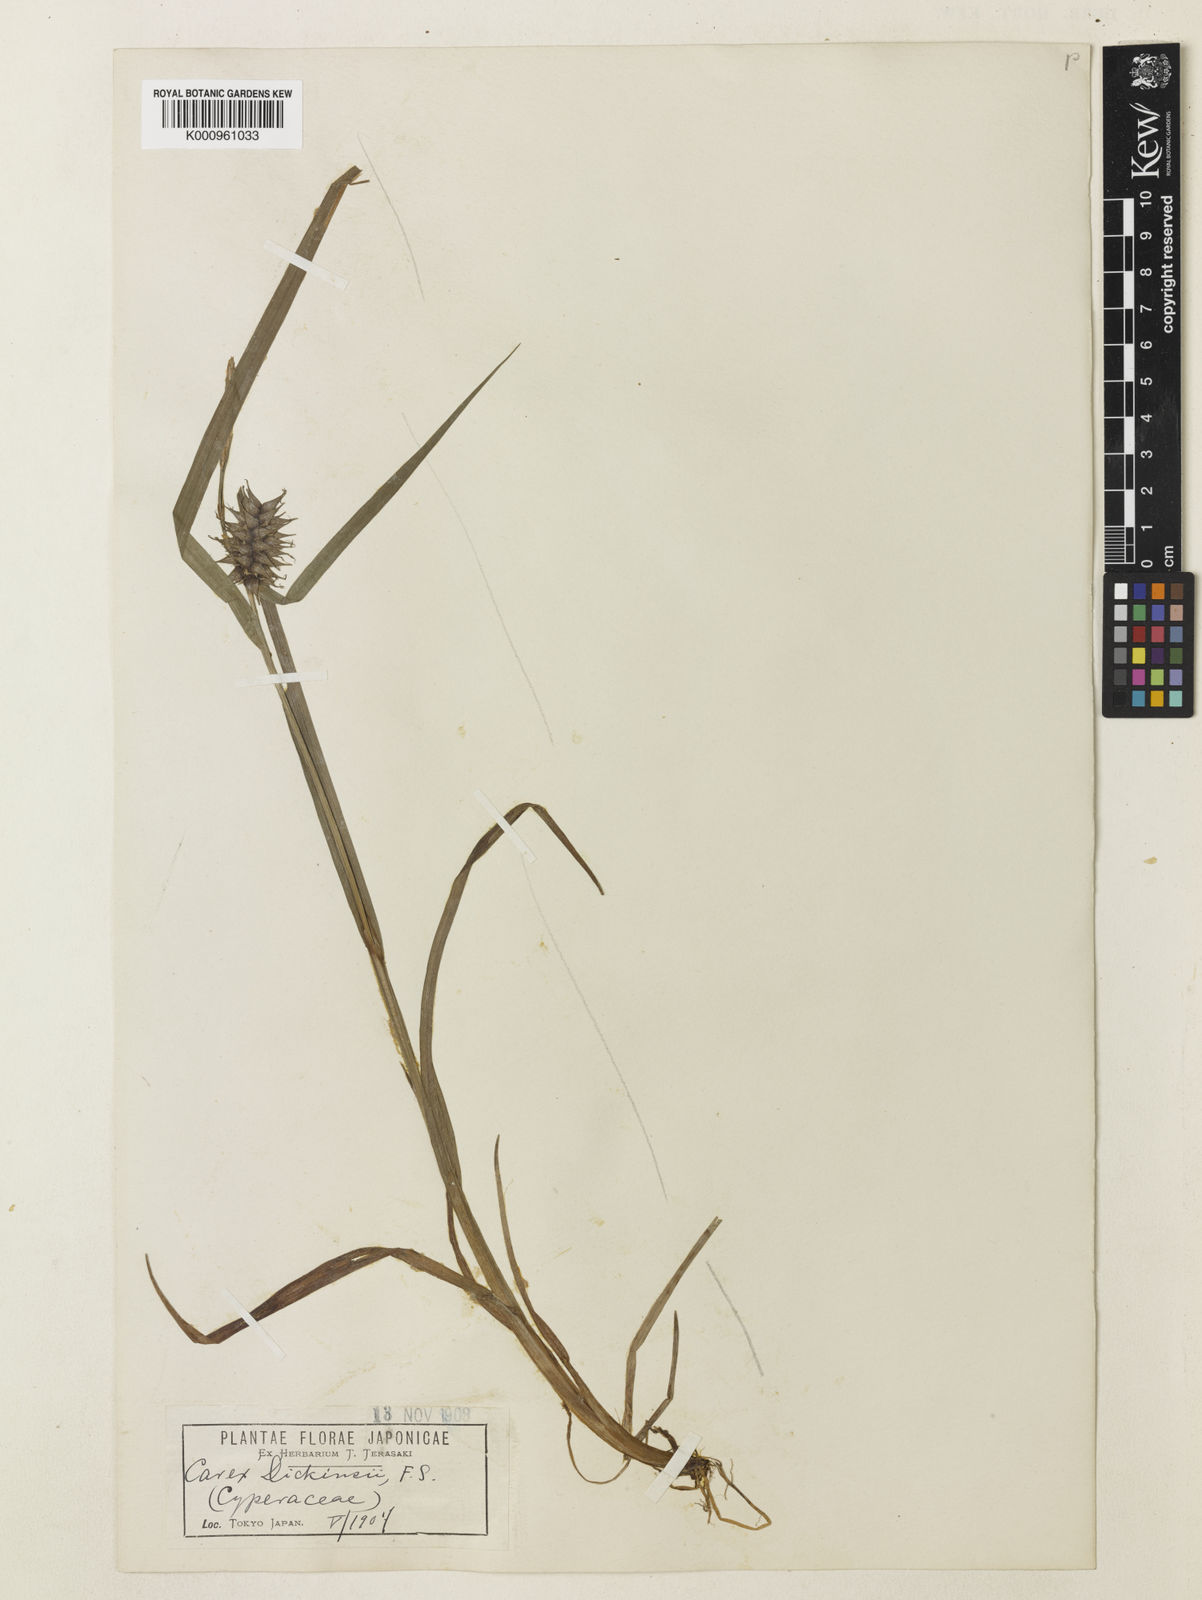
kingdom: Plantae
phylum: Tracheophyta
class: Liliopsida
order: Poales
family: Cyperaceae
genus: Carex
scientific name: Carex dickinsii
